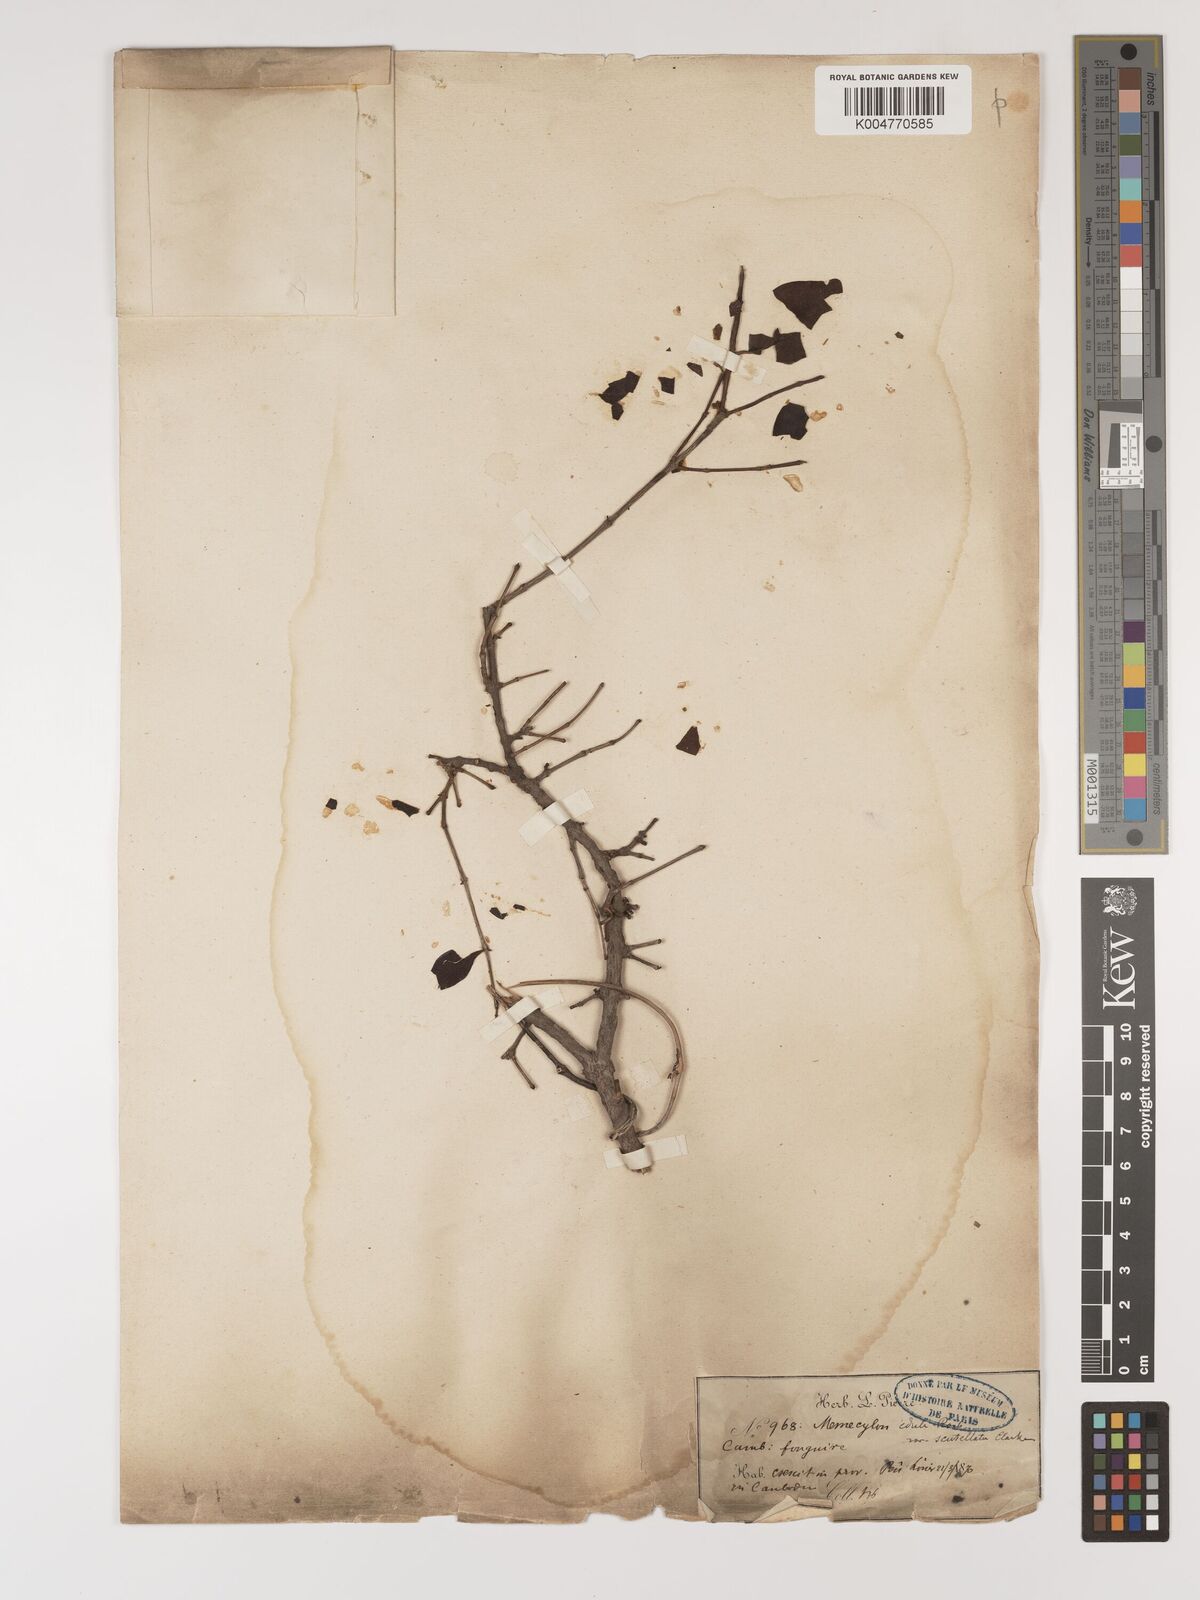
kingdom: Plantae
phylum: Tracheophyta
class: Magnoliopsida
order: Myrtales
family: Melastomataceae
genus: Memecylon
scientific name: Memecylon scutellatum
